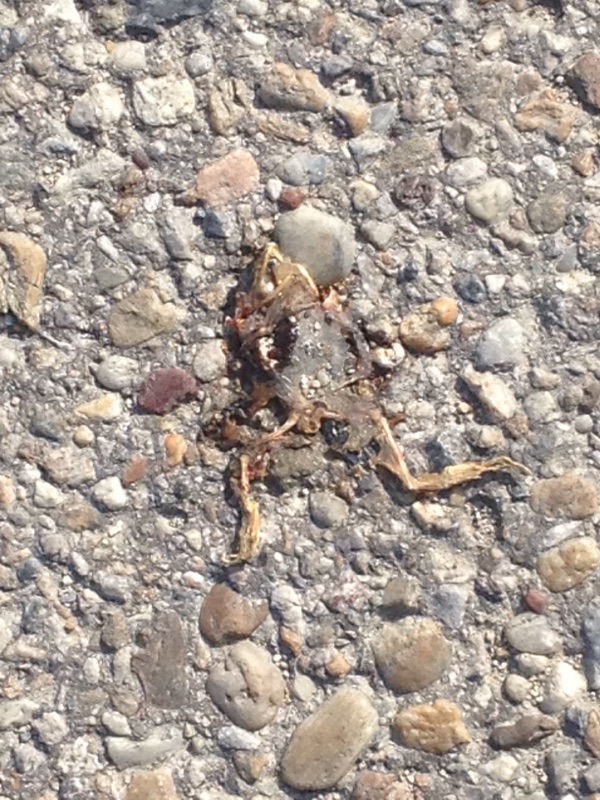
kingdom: Animalia
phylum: Chordata
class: Amphibia
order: Anura
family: Ranidae
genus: Rana
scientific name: Rana dalmatina
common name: Agile frog
